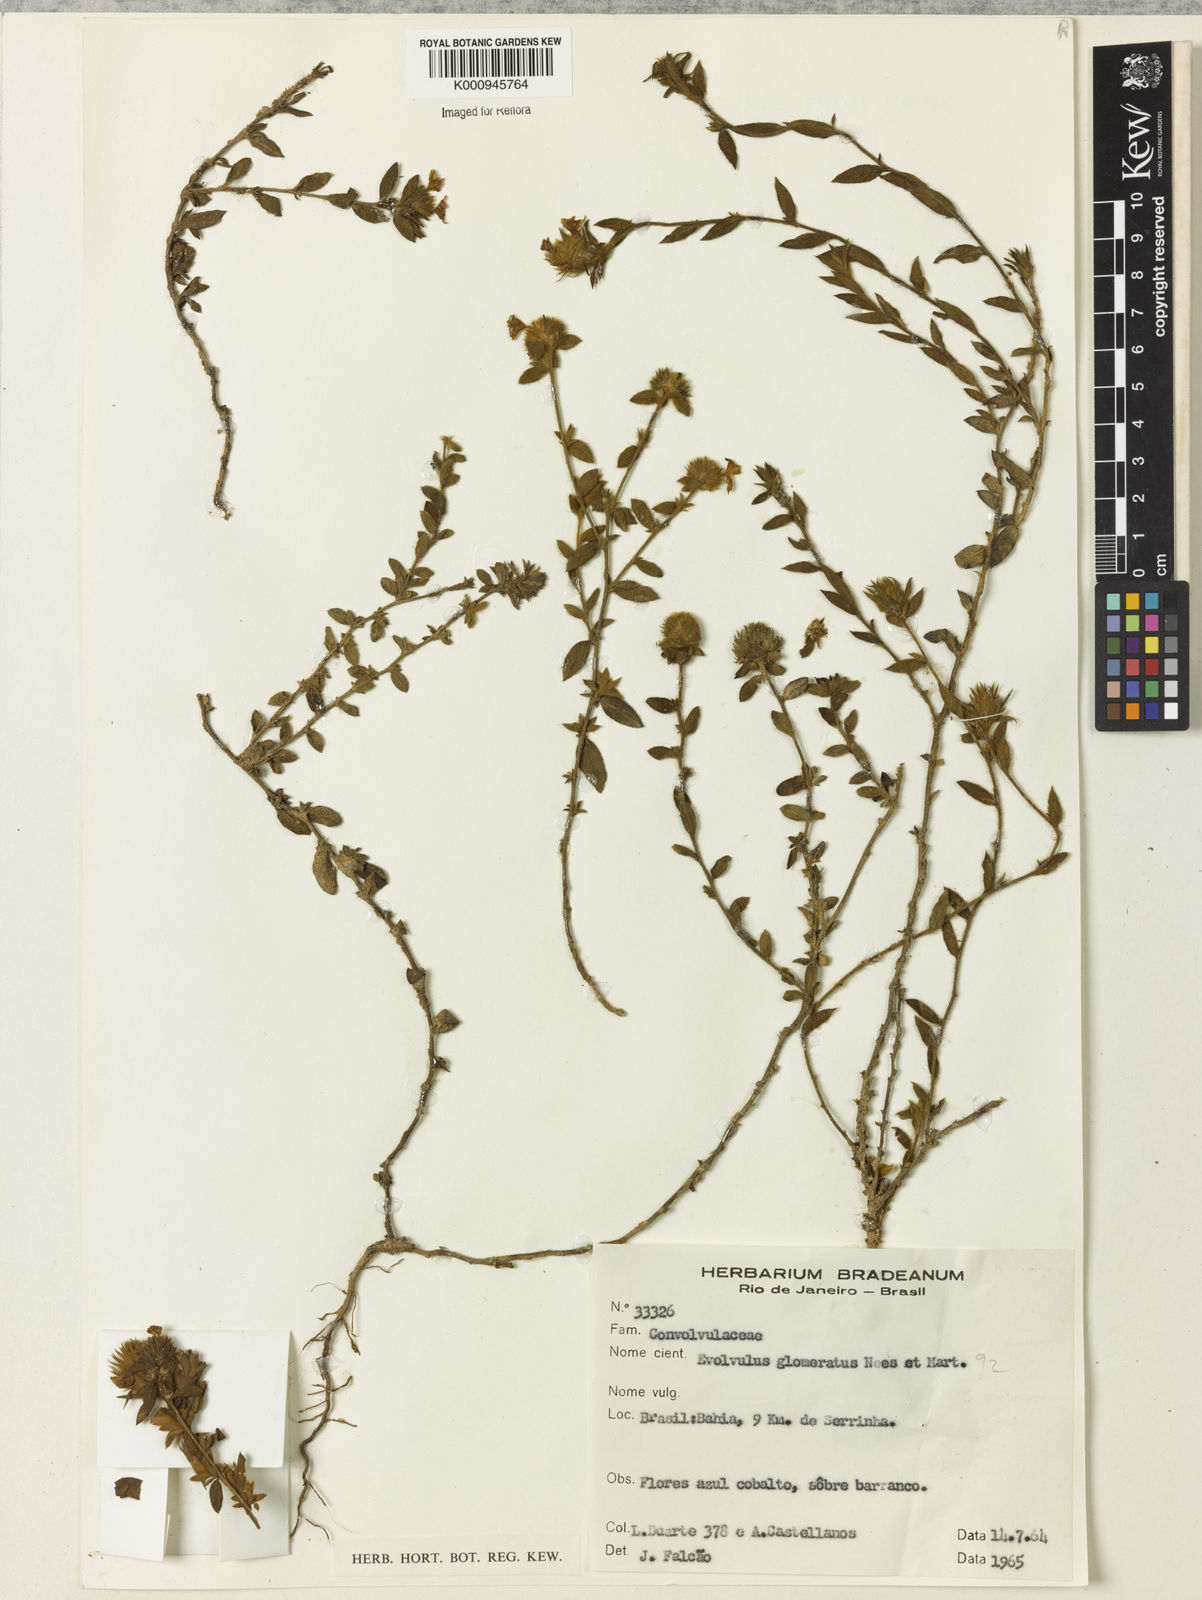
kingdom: Plantae
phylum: Tracheophyta
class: Magnoliopsida
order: Solanales
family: Convolvulaceae
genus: Evolvulus
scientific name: Evolvulus glomeratus
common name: Brazilian dwarf morning-glory
